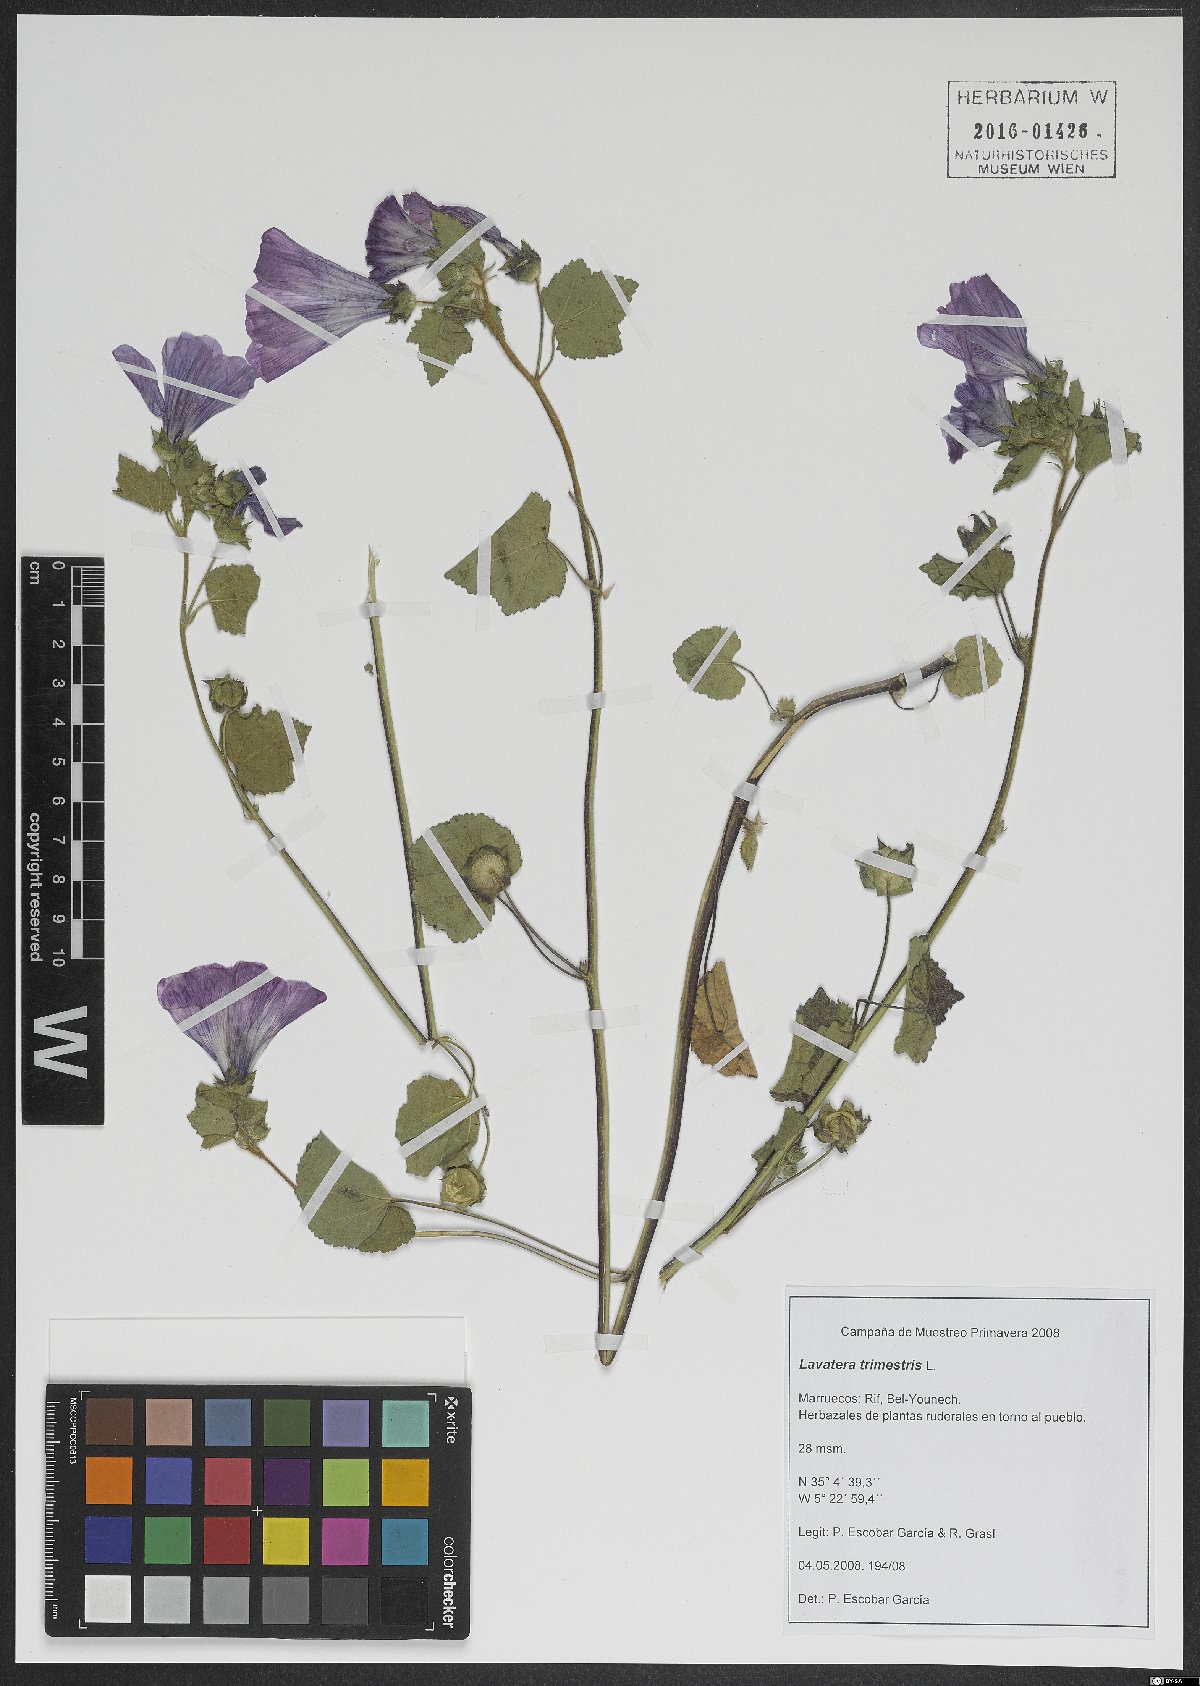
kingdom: Plantae
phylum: Tracheophyta
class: Magnoliopsida
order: Malvales
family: Malvaceae
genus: Malva
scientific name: Malva trimestris
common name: Royal mallow
